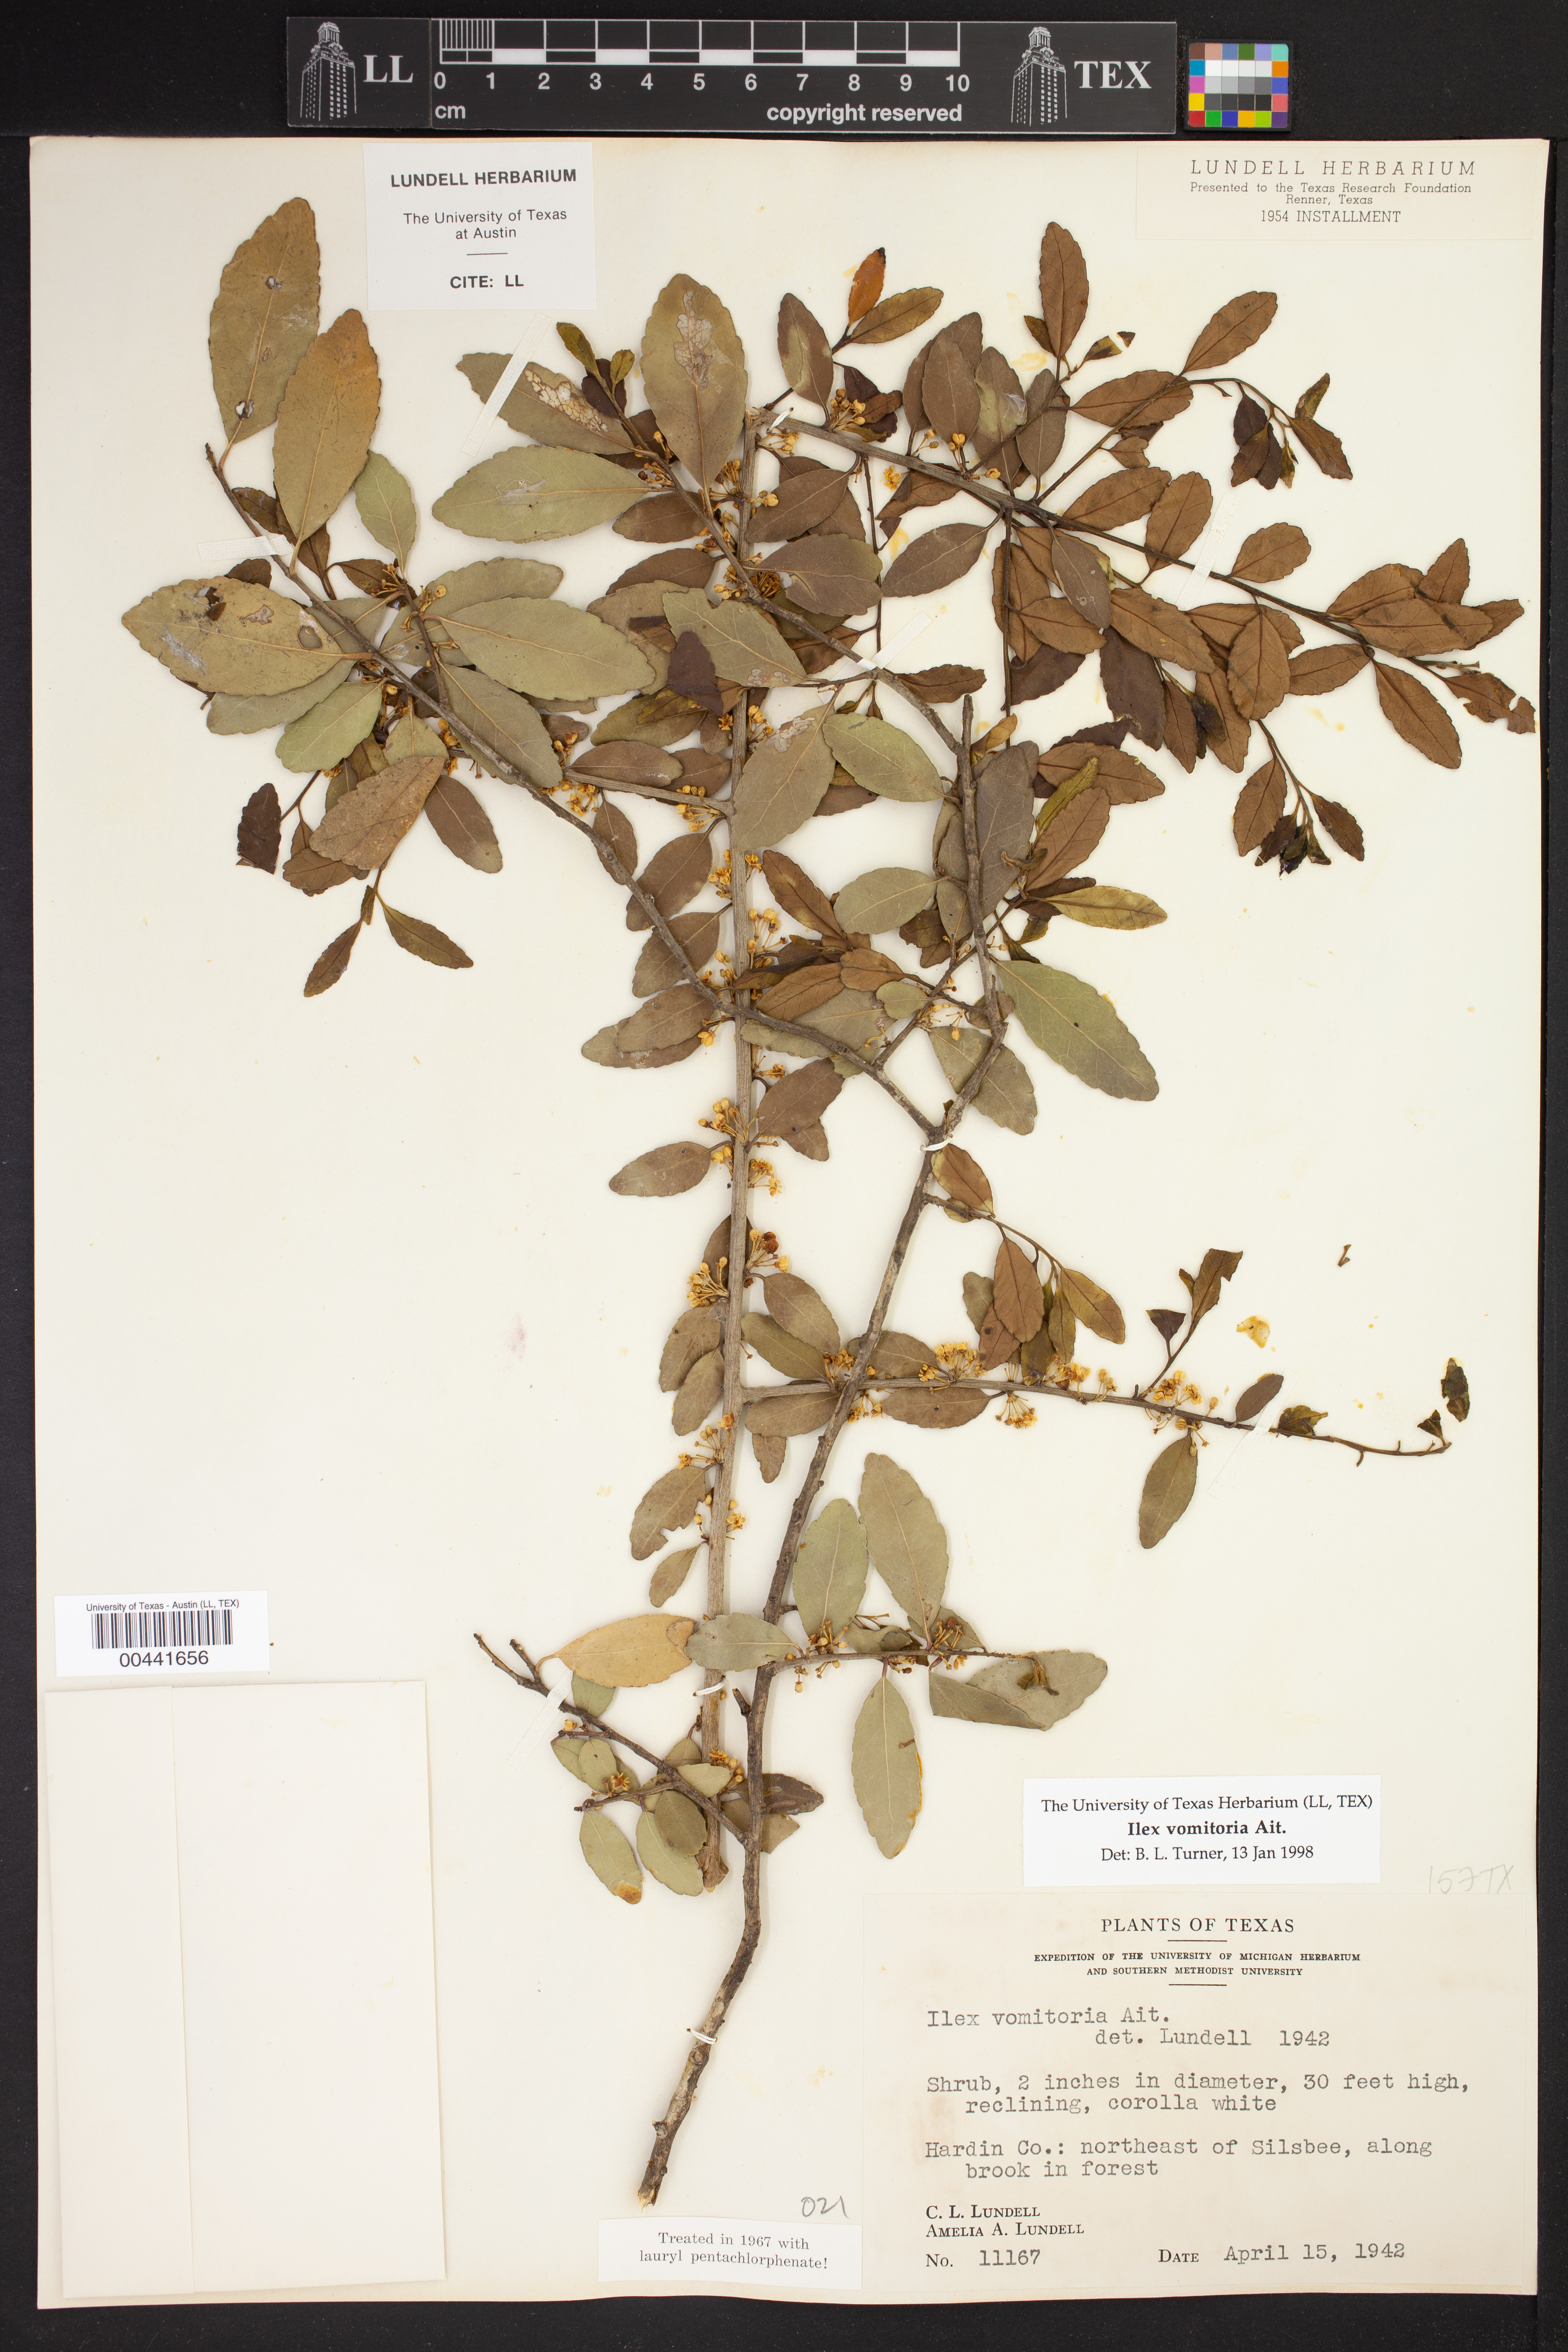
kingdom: Plantae
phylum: Tracheophyta
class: Magnoliopsida
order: Aquifoliales
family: Aquifoliaceae
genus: Ilex
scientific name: Ilex vomitoria
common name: Yaupon holly
